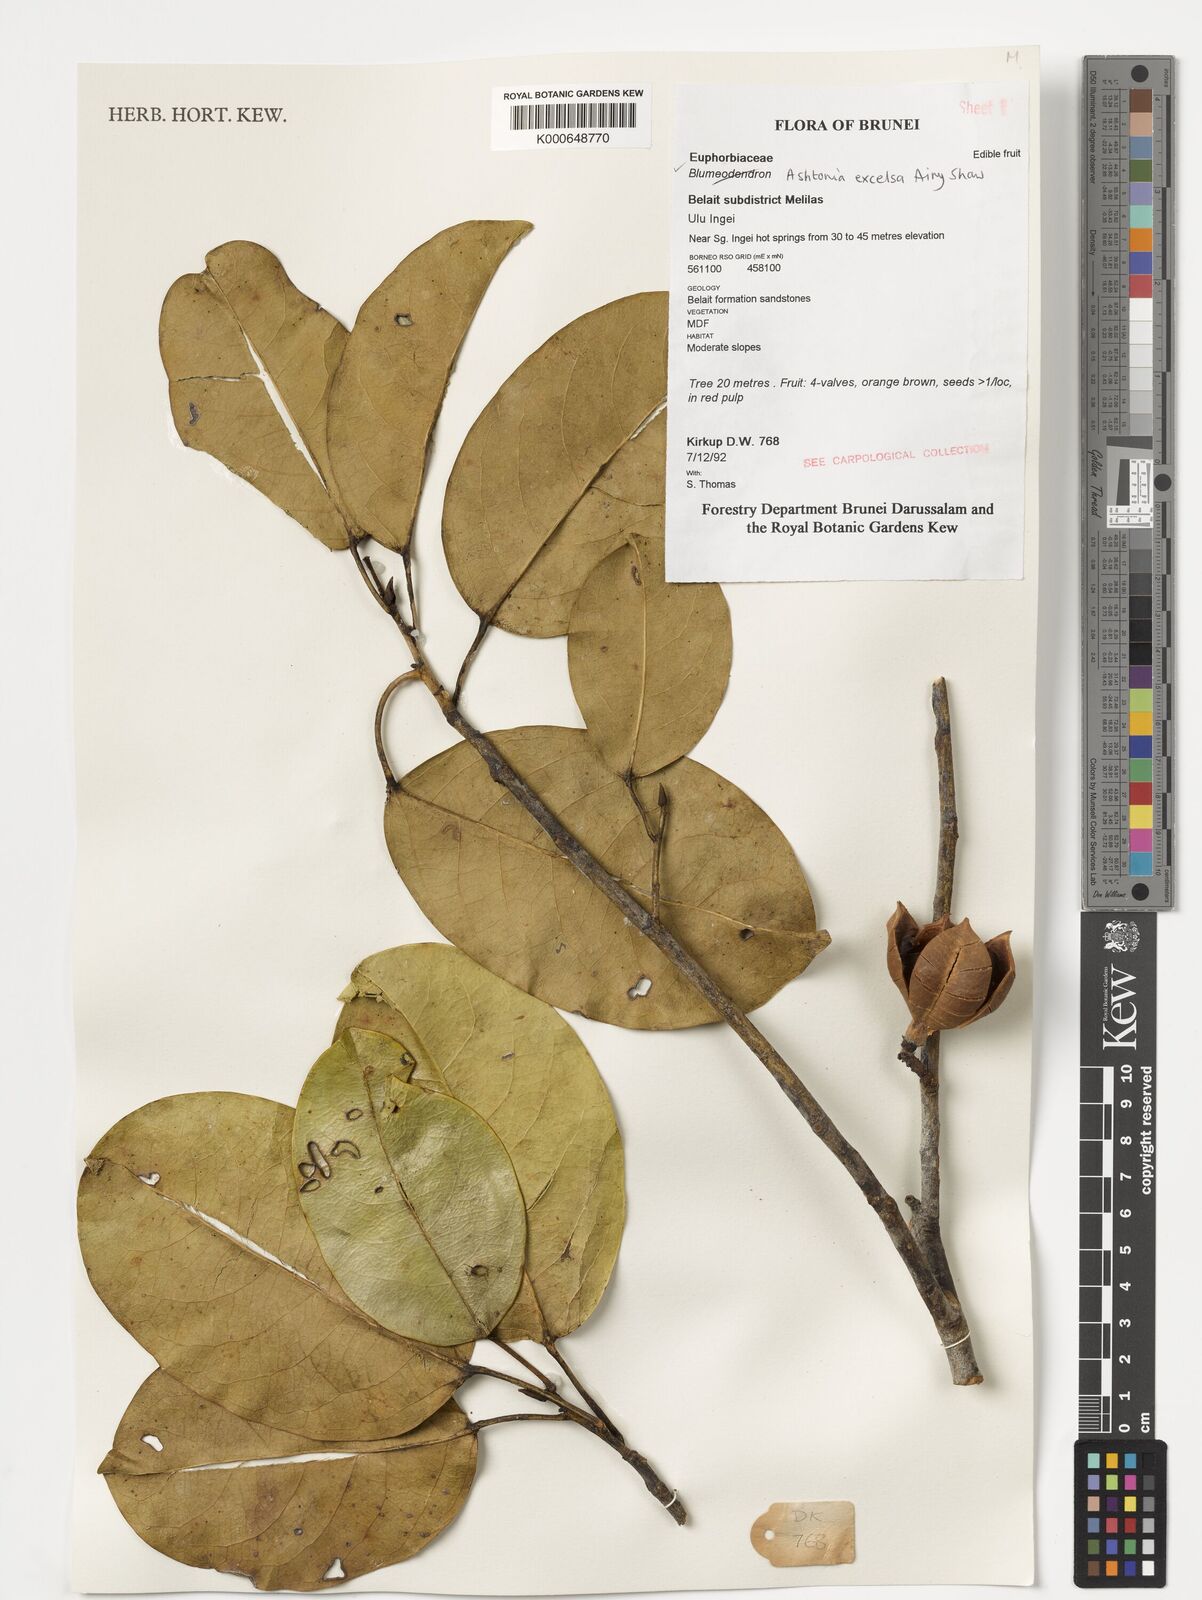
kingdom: Plantae
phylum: Tracheophyta
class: Magnoliopsida
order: Malpighiales
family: Phyllanthaceae
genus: Ashtonia
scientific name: Ashtonia excelsa
